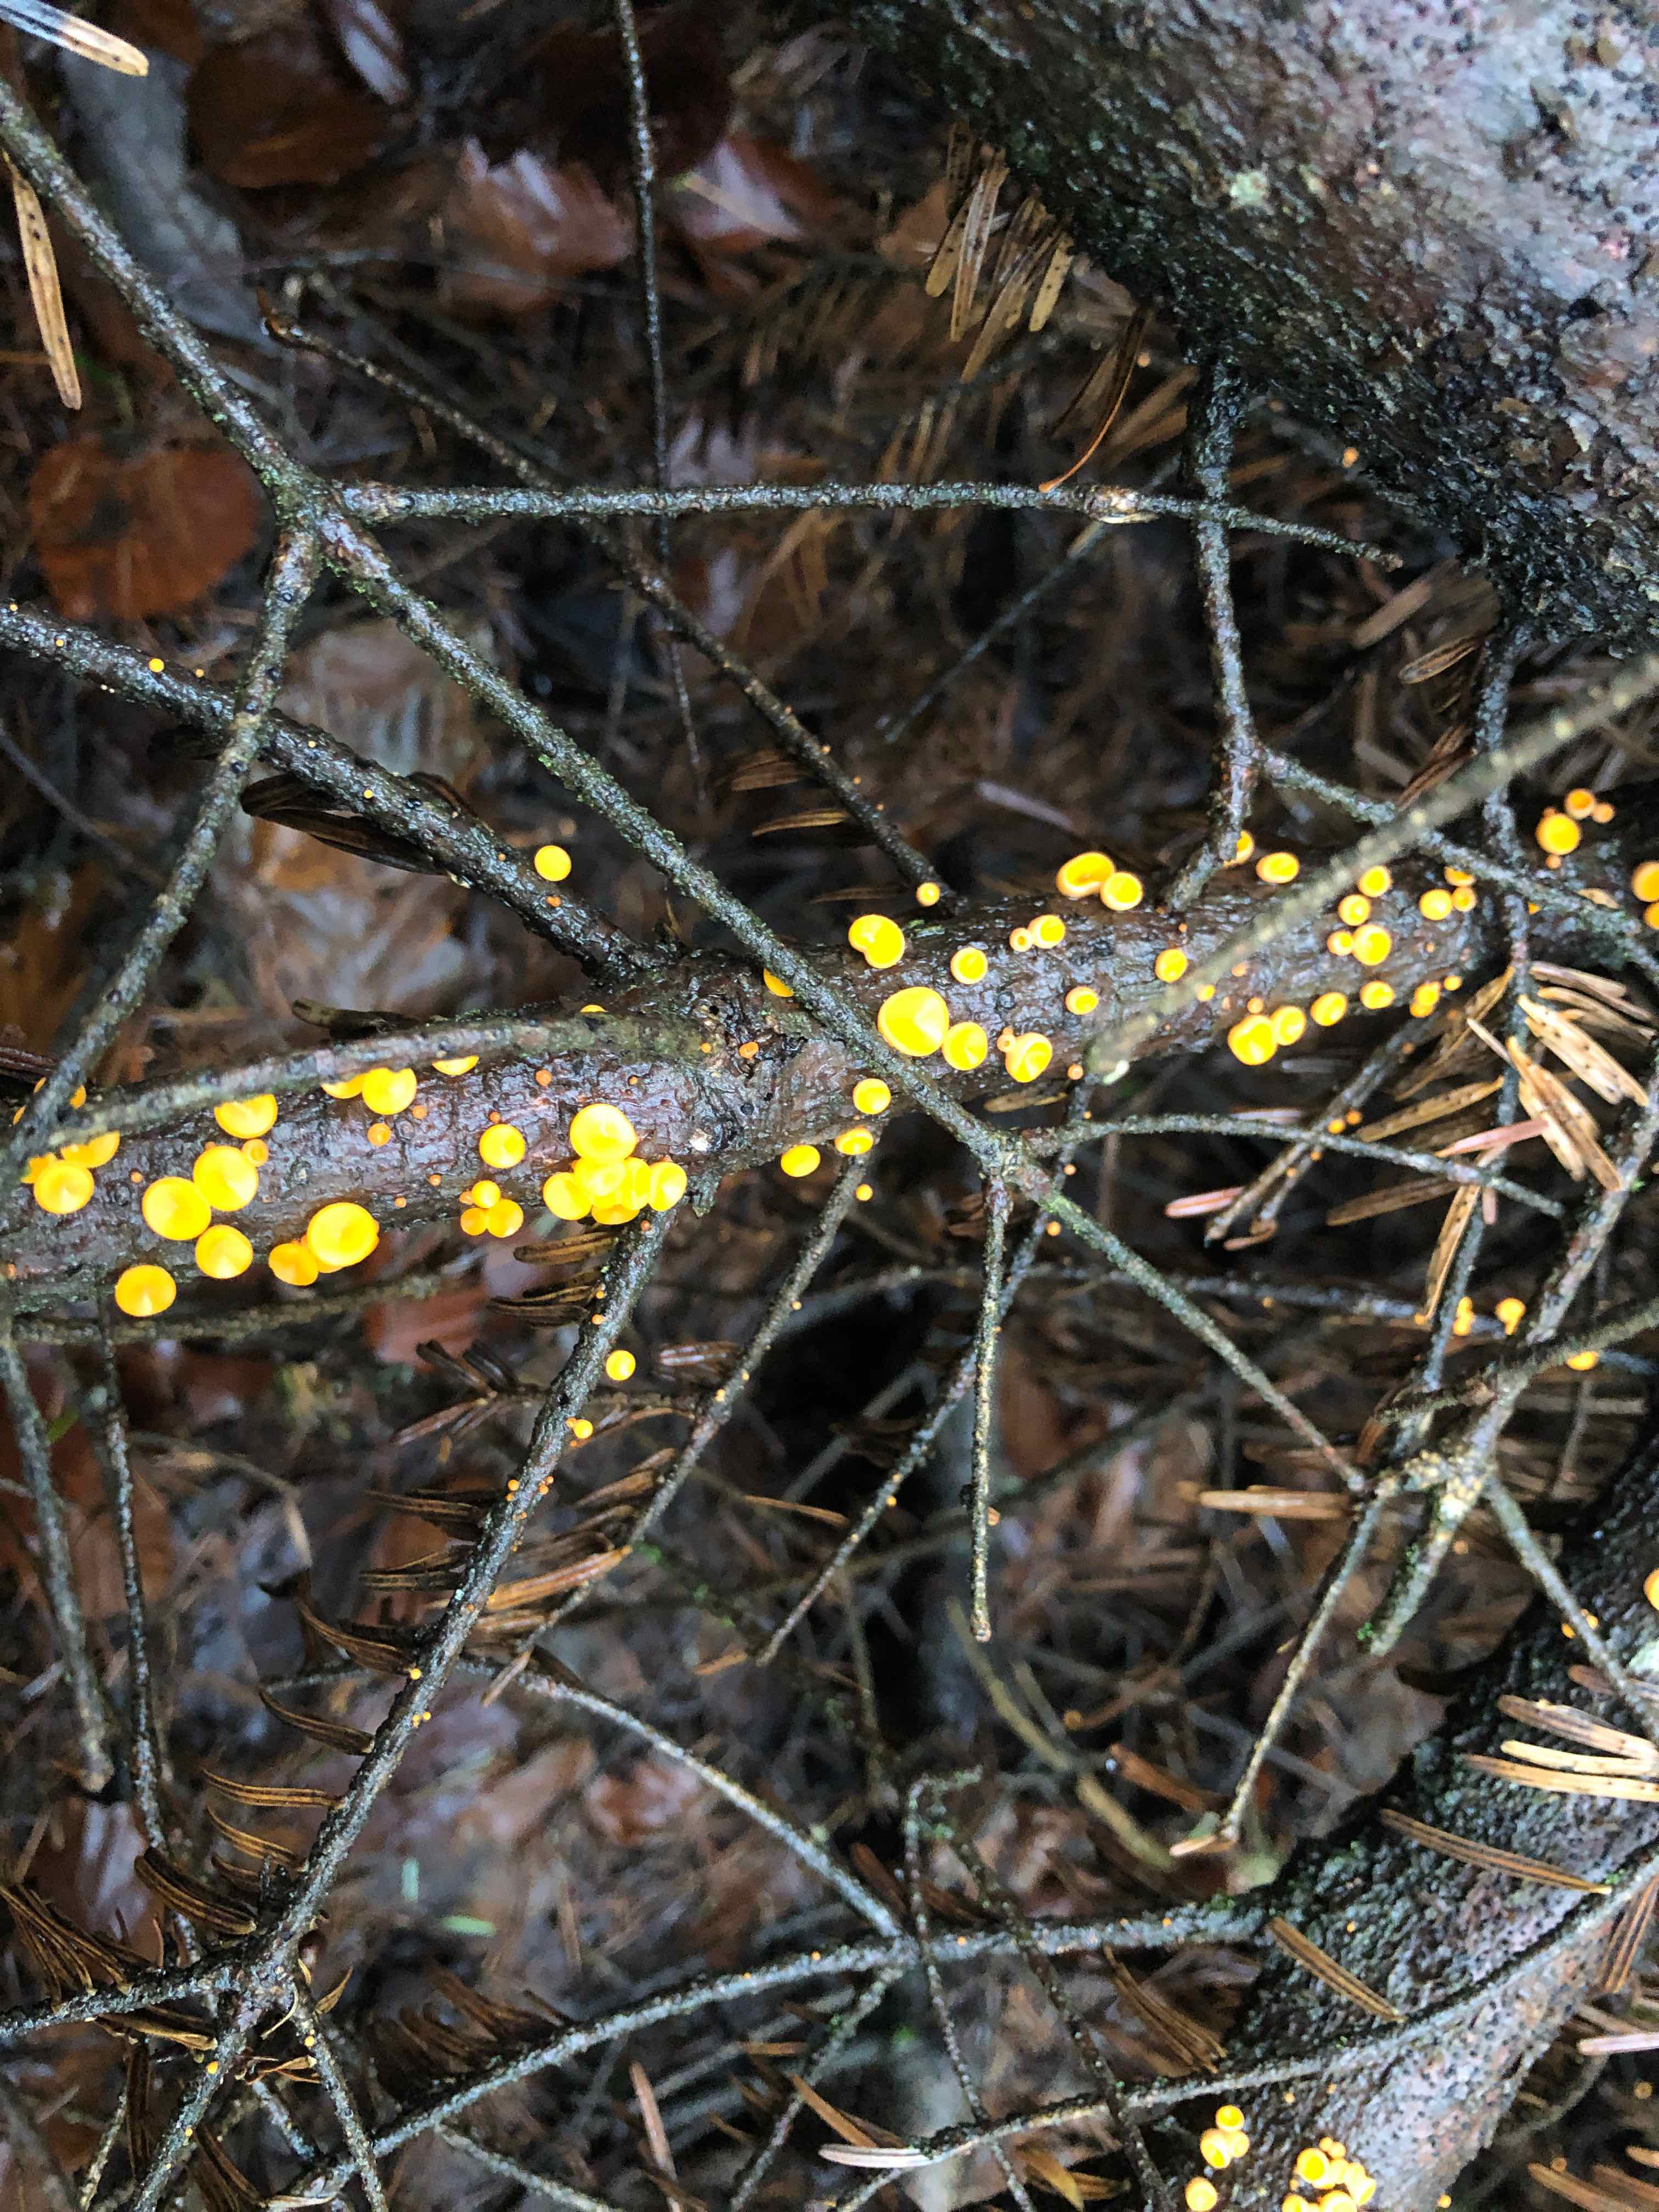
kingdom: Fungi
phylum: Ascomycota
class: Pezizomycetes
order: Pezizales
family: Sarcoscyphaceae
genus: Pithya
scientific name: Pithya vulgaris
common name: stor dukatbæger
